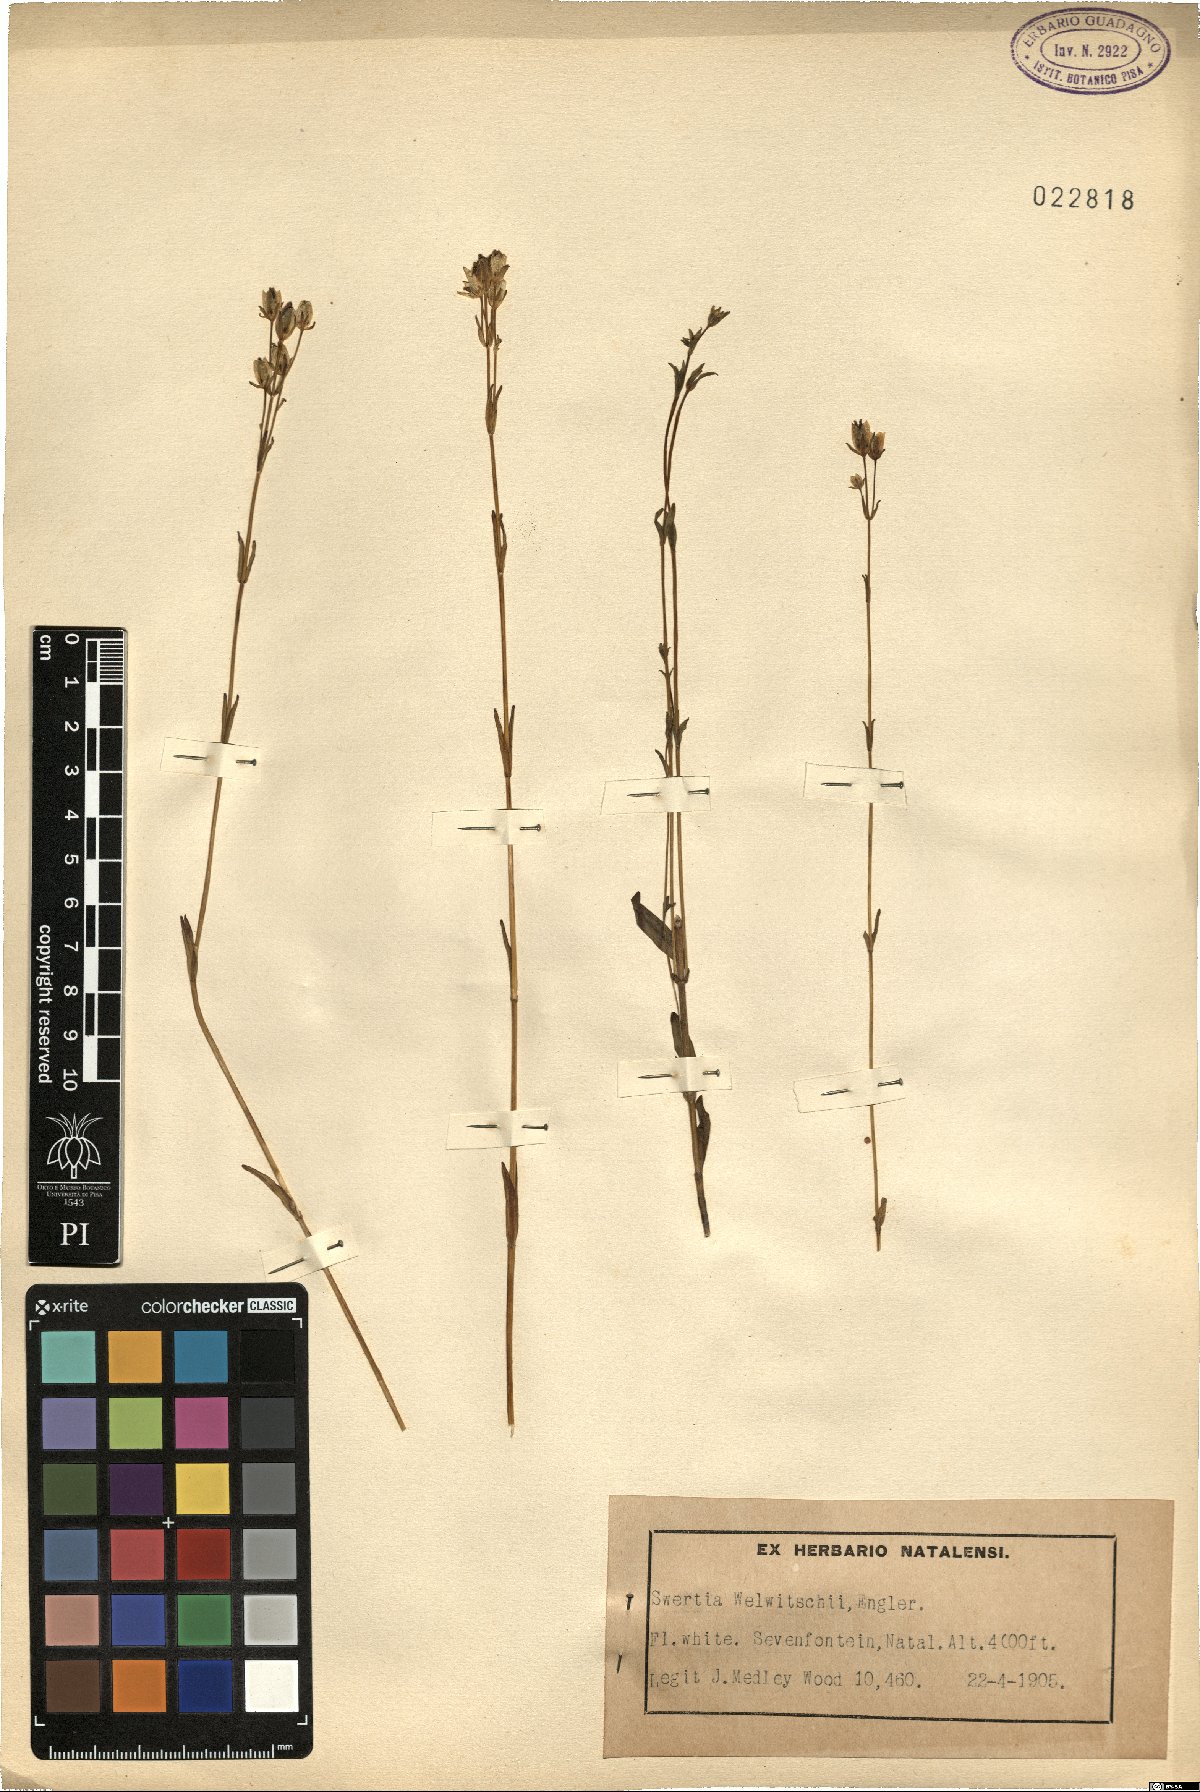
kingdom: Plantae
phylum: Tracheophyta
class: Magnoliopsida
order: Gentianales
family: Gentianaceae
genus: Swertia
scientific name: Swertia welwitschii
